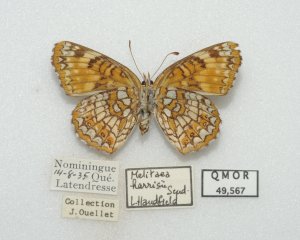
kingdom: Animalia
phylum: Arthropoda
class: Insecta
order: Lepidoptera
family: Nymphalidae
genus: Chlosyne
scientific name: Chlosyne harrisii
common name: Harris's Checkerspot
